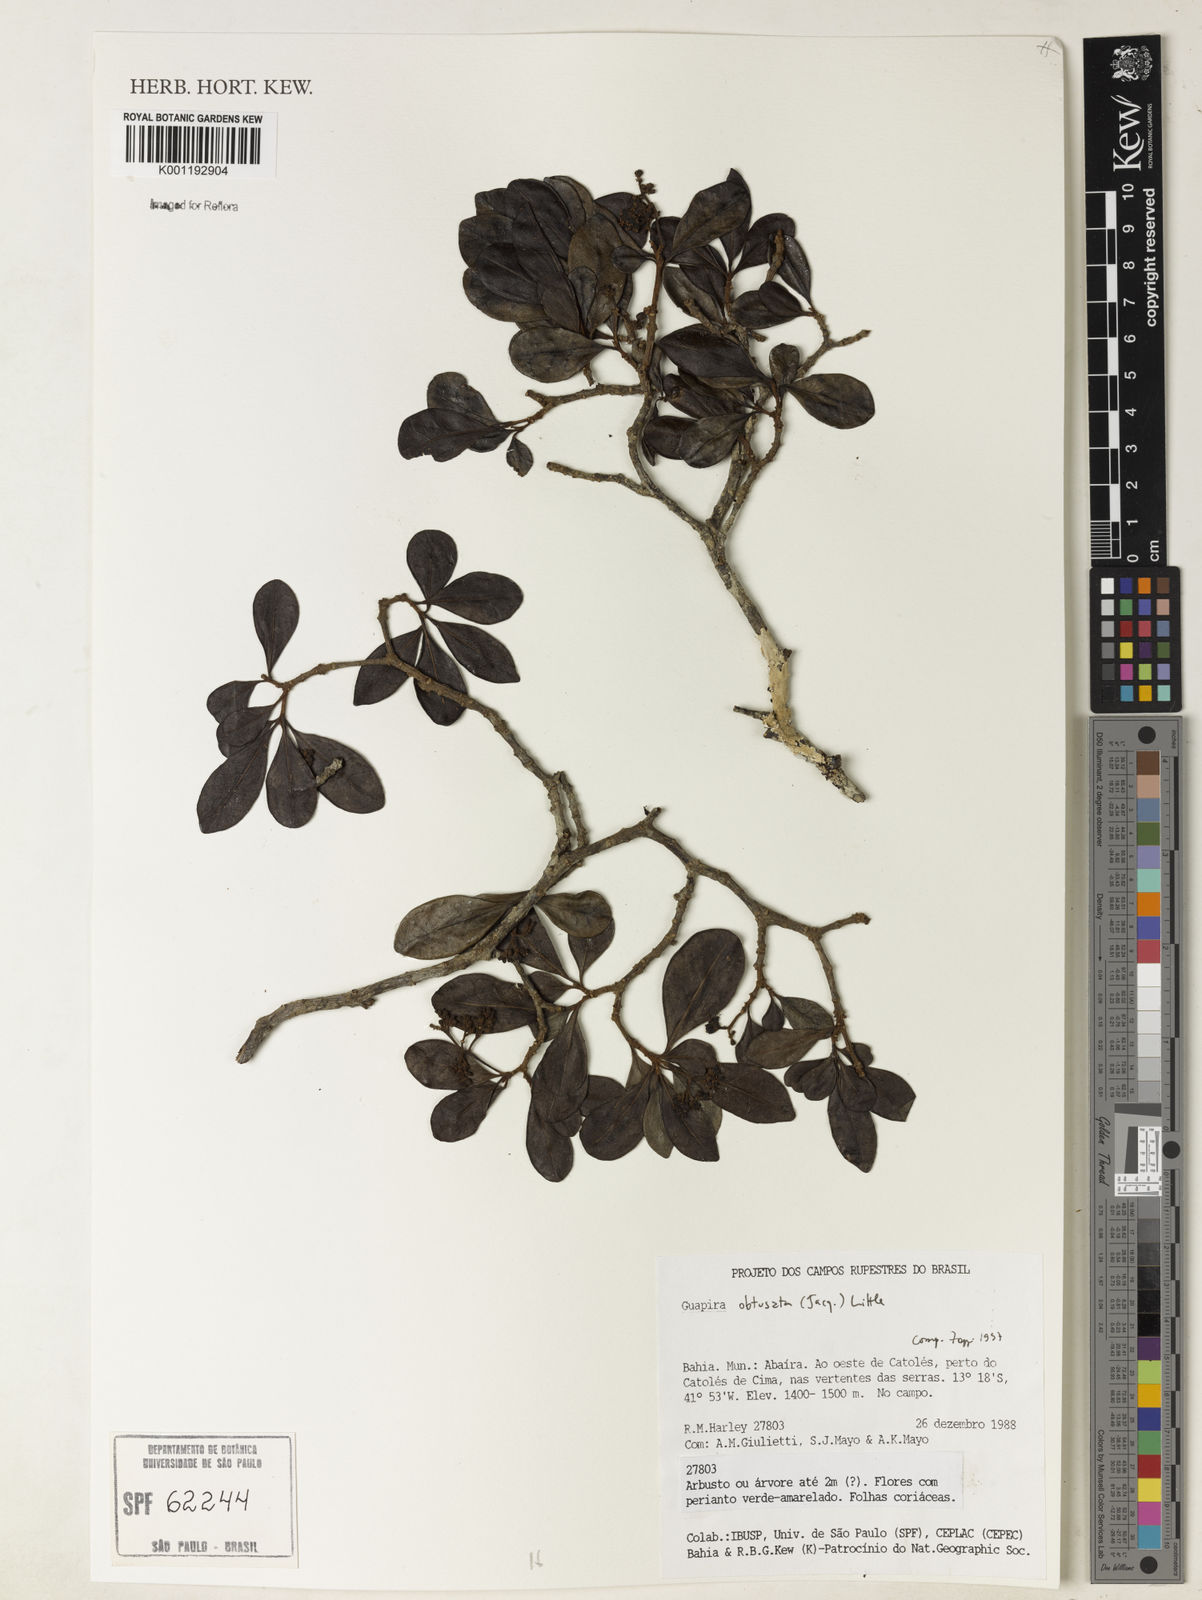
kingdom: Plantae
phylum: Tracheophyta
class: Magnoliopsida
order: Caryophyllales
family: Nyctaginaceae
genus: Guapira
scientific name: Guapira obtusata
